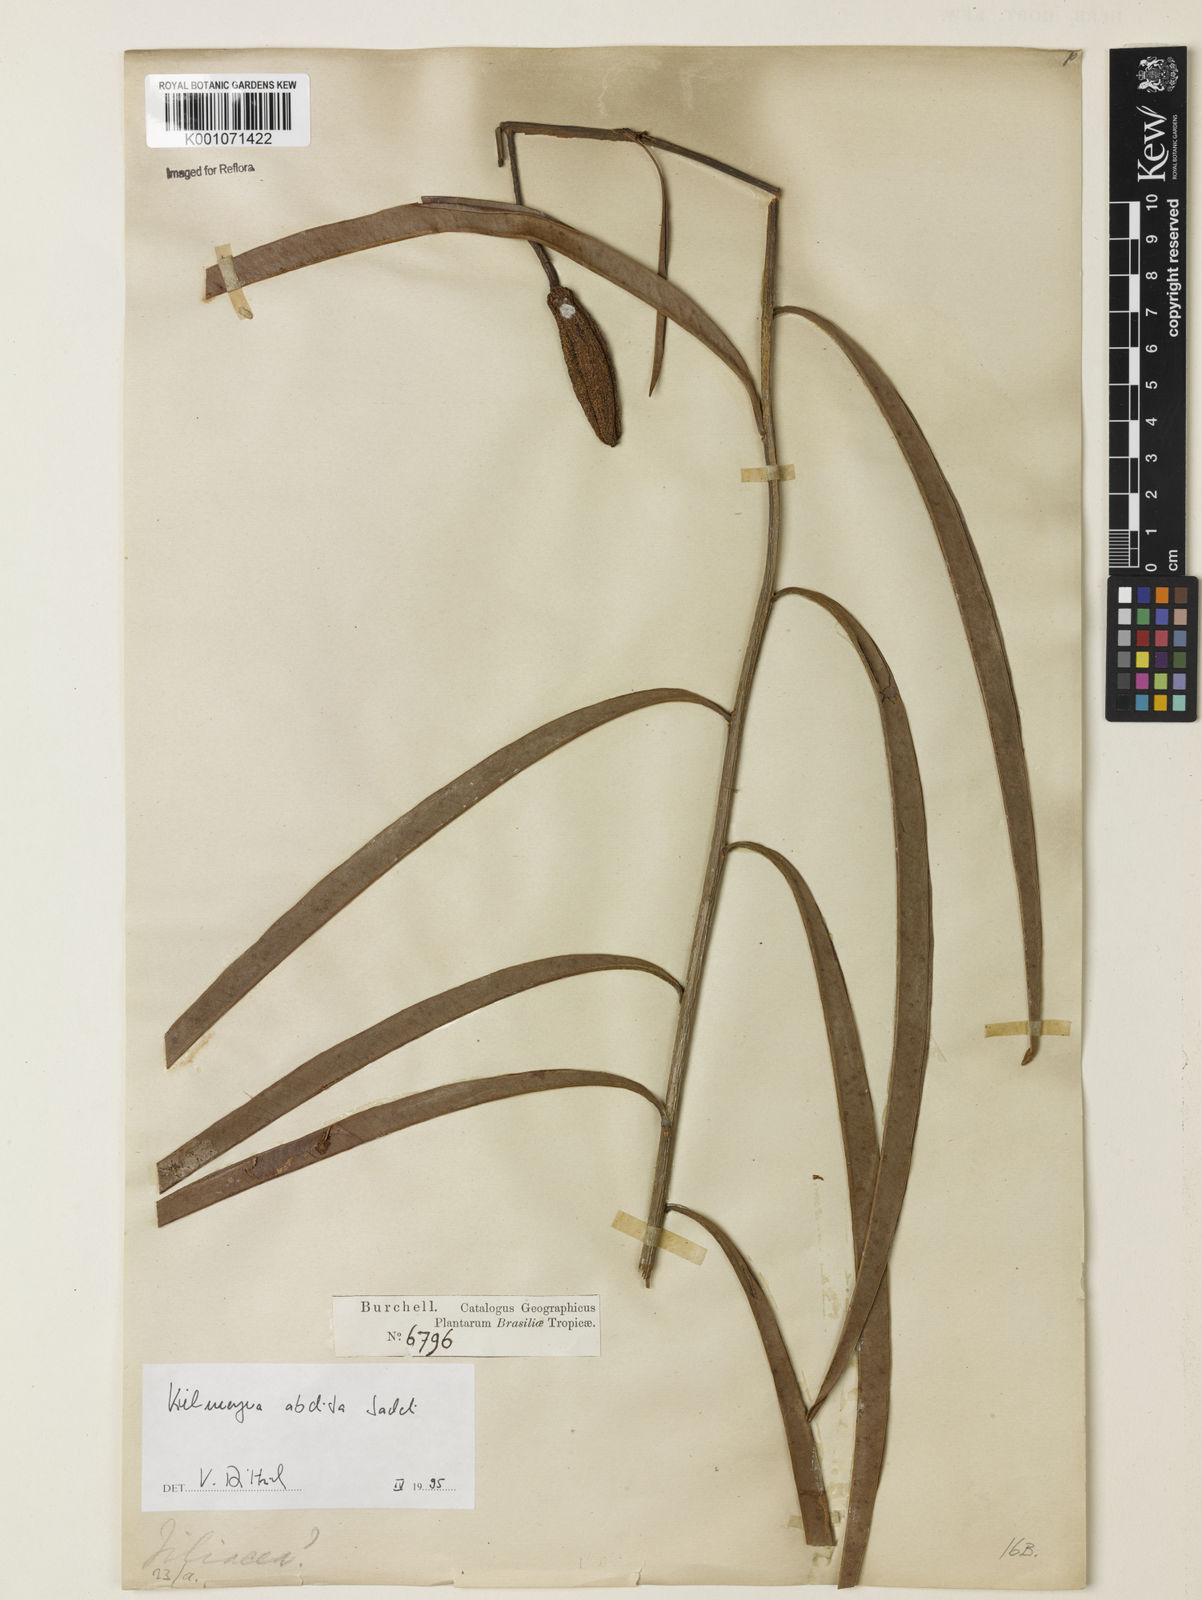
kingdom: Plantae
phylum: Tracheophyta
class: Magnoliopsida
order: Malpighiales
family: Calophyllaceae
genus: Kielmeyera
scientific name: Kielmeyera abdita
